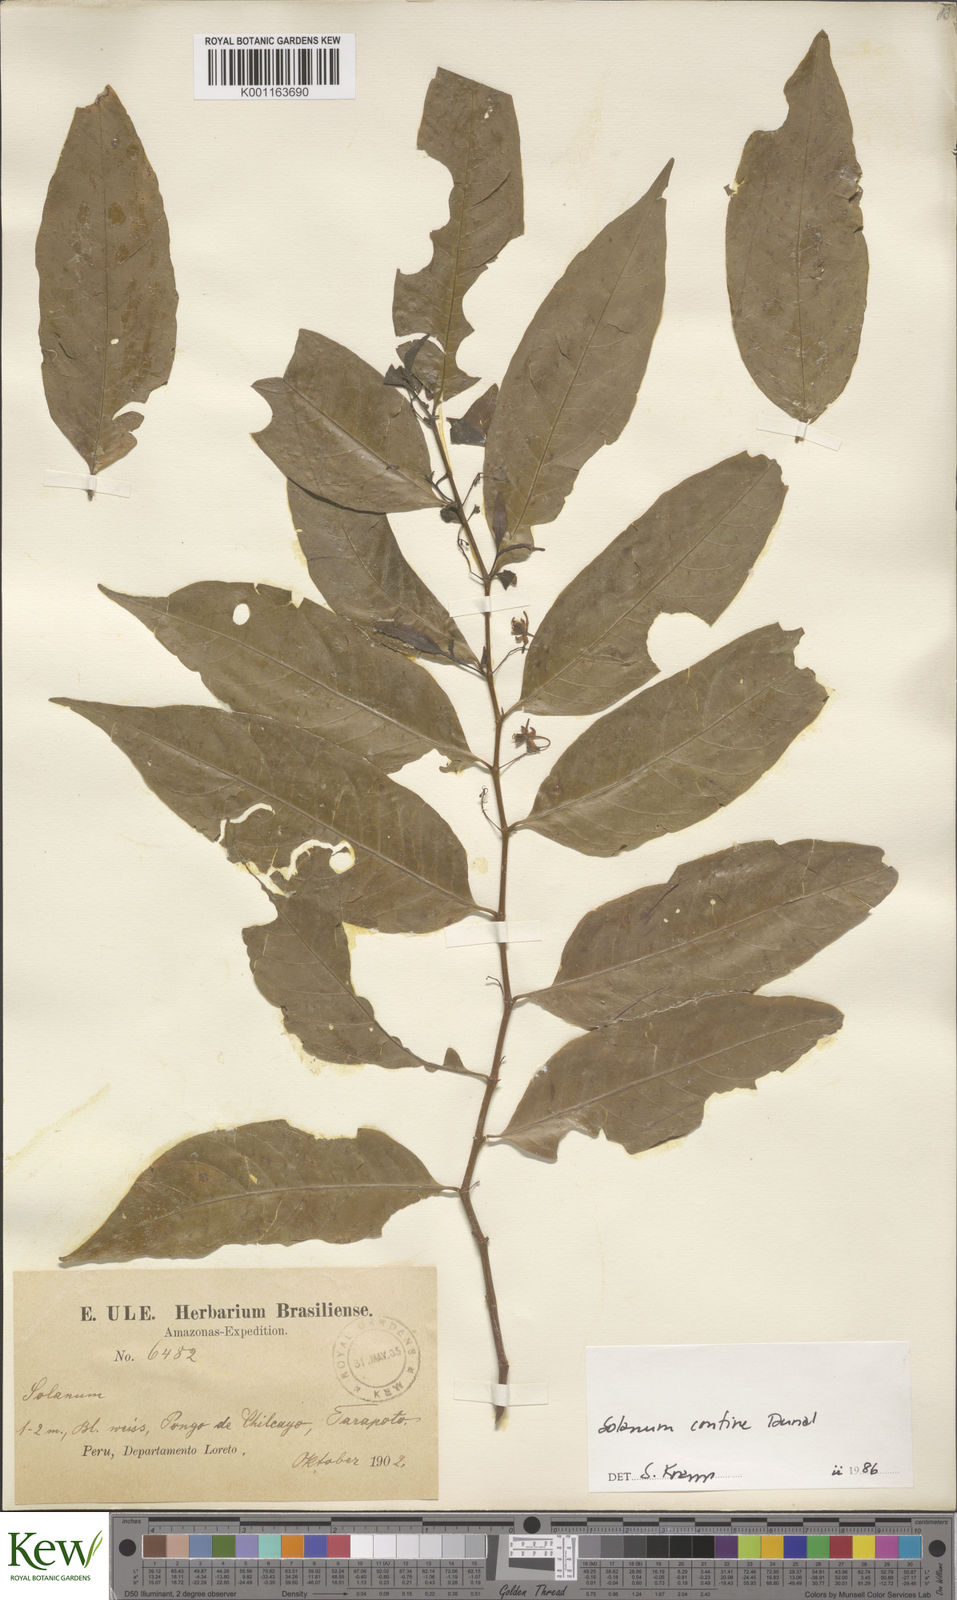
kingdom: Plantae
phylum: Tracheophyta
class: Magnoliopsida
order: Solanales
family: Solanaceae
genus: Solanum
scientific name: Solanum confine
